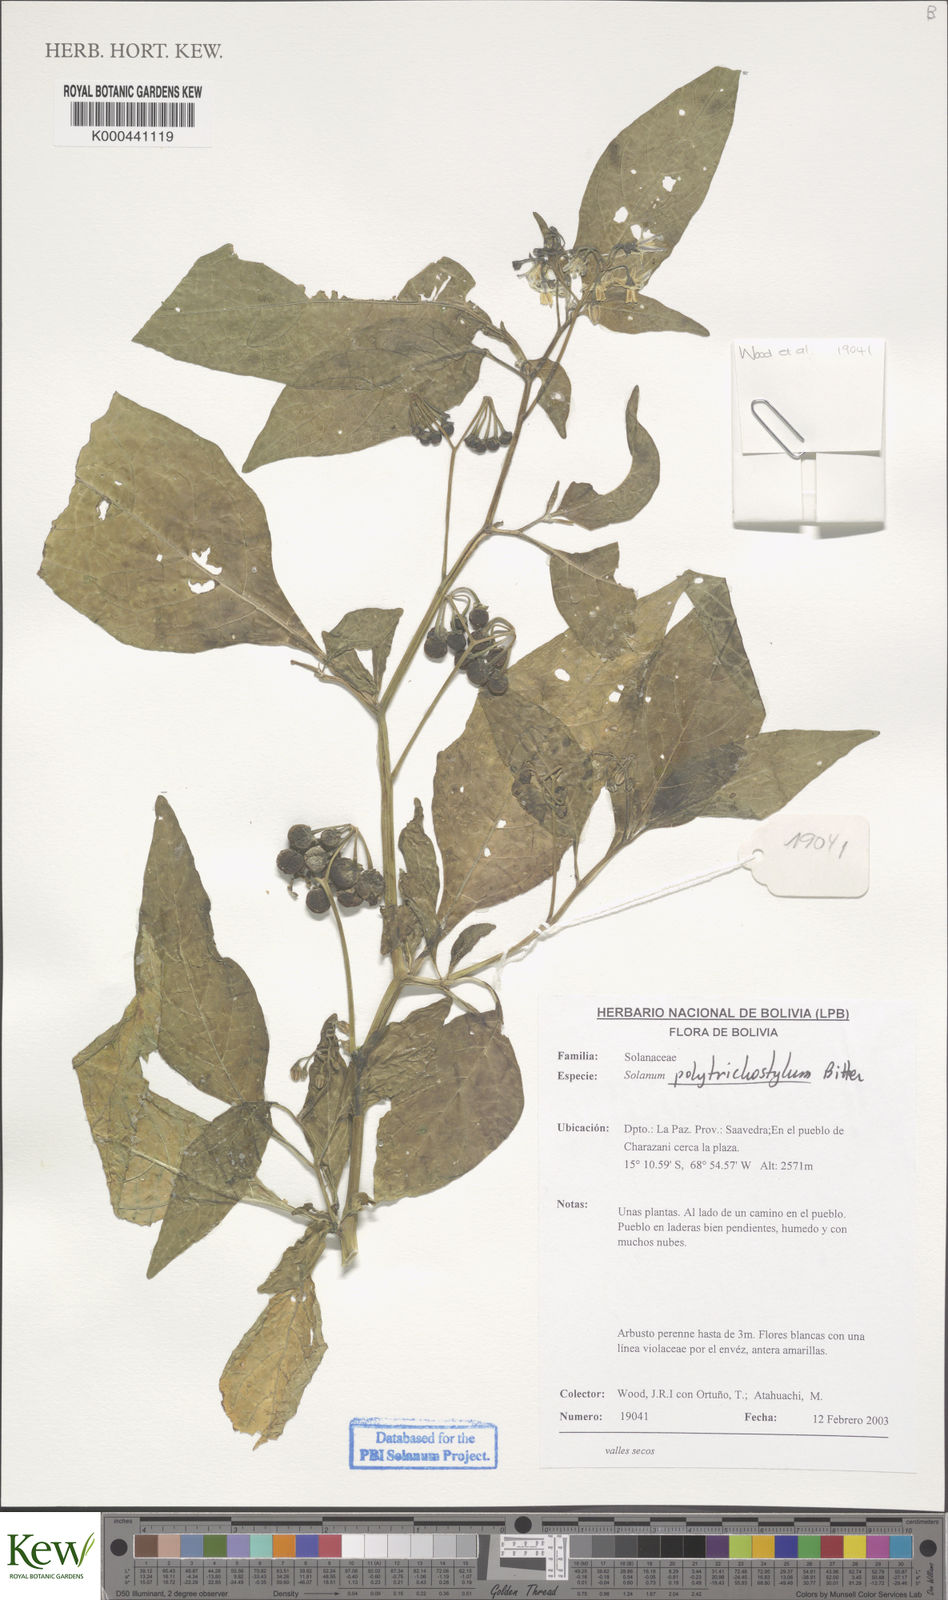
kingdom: Plantae
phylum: Tracheophyta
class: Magnoliopsida
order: Solanales
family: Solanaceae
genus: Solanum
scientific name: Solanum polytrichostylum
